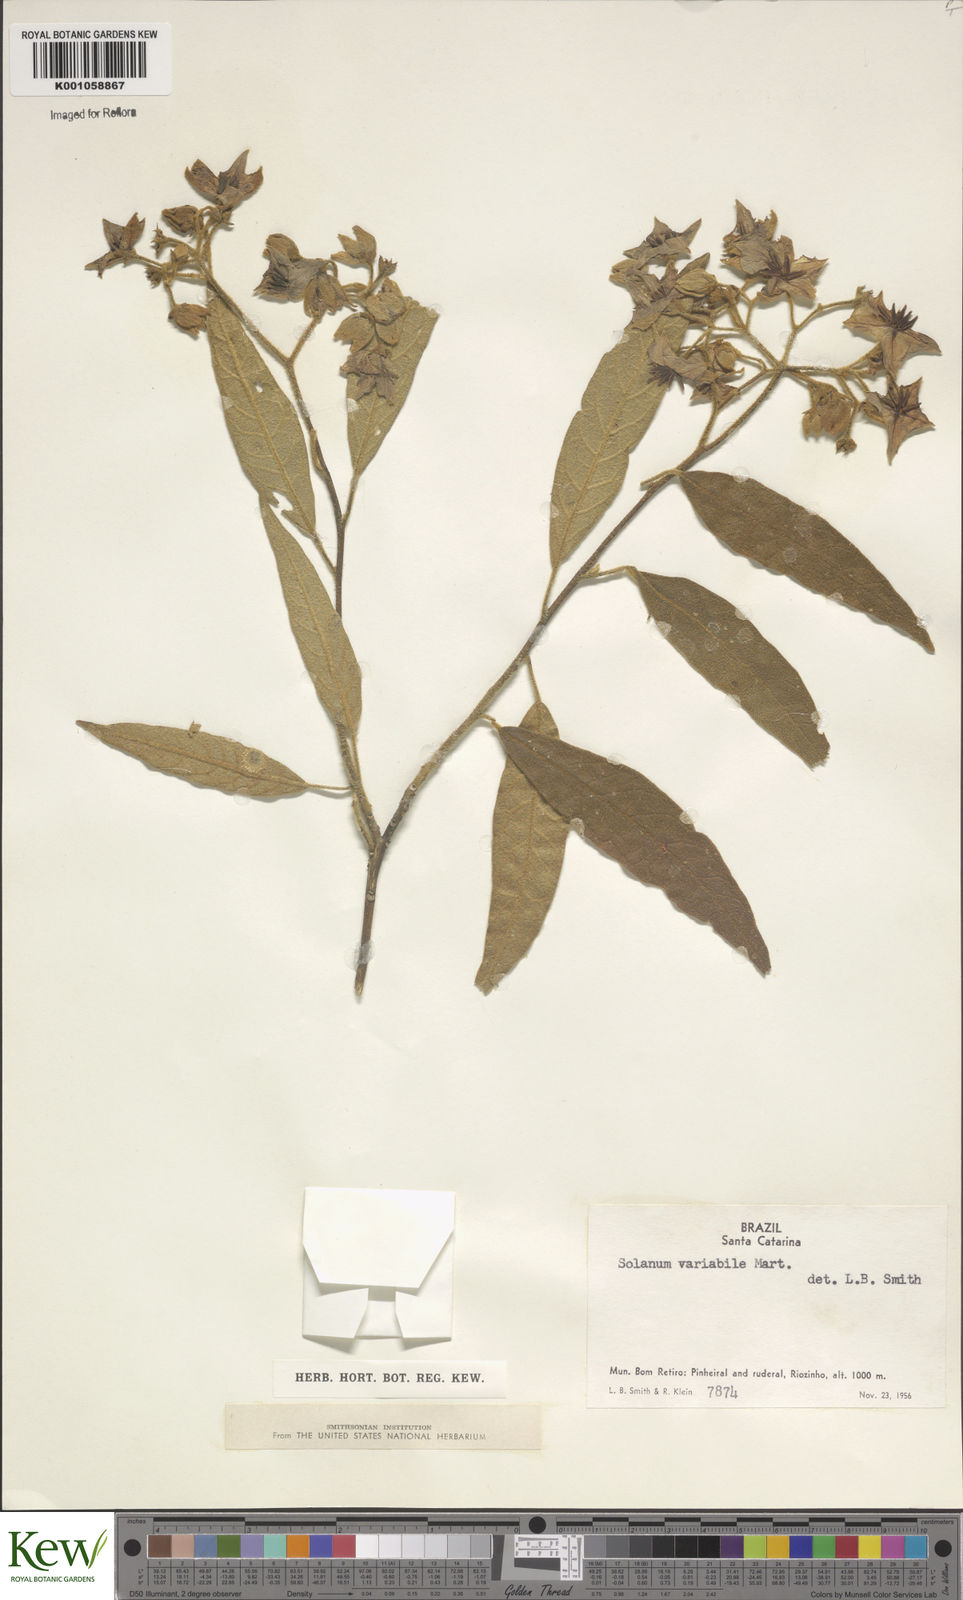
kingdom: Plantae
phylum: Tracheophyta
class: Magnoliopsida
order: Solanales
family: Solanaceae
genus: Solanum
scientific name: Solanum variabile
